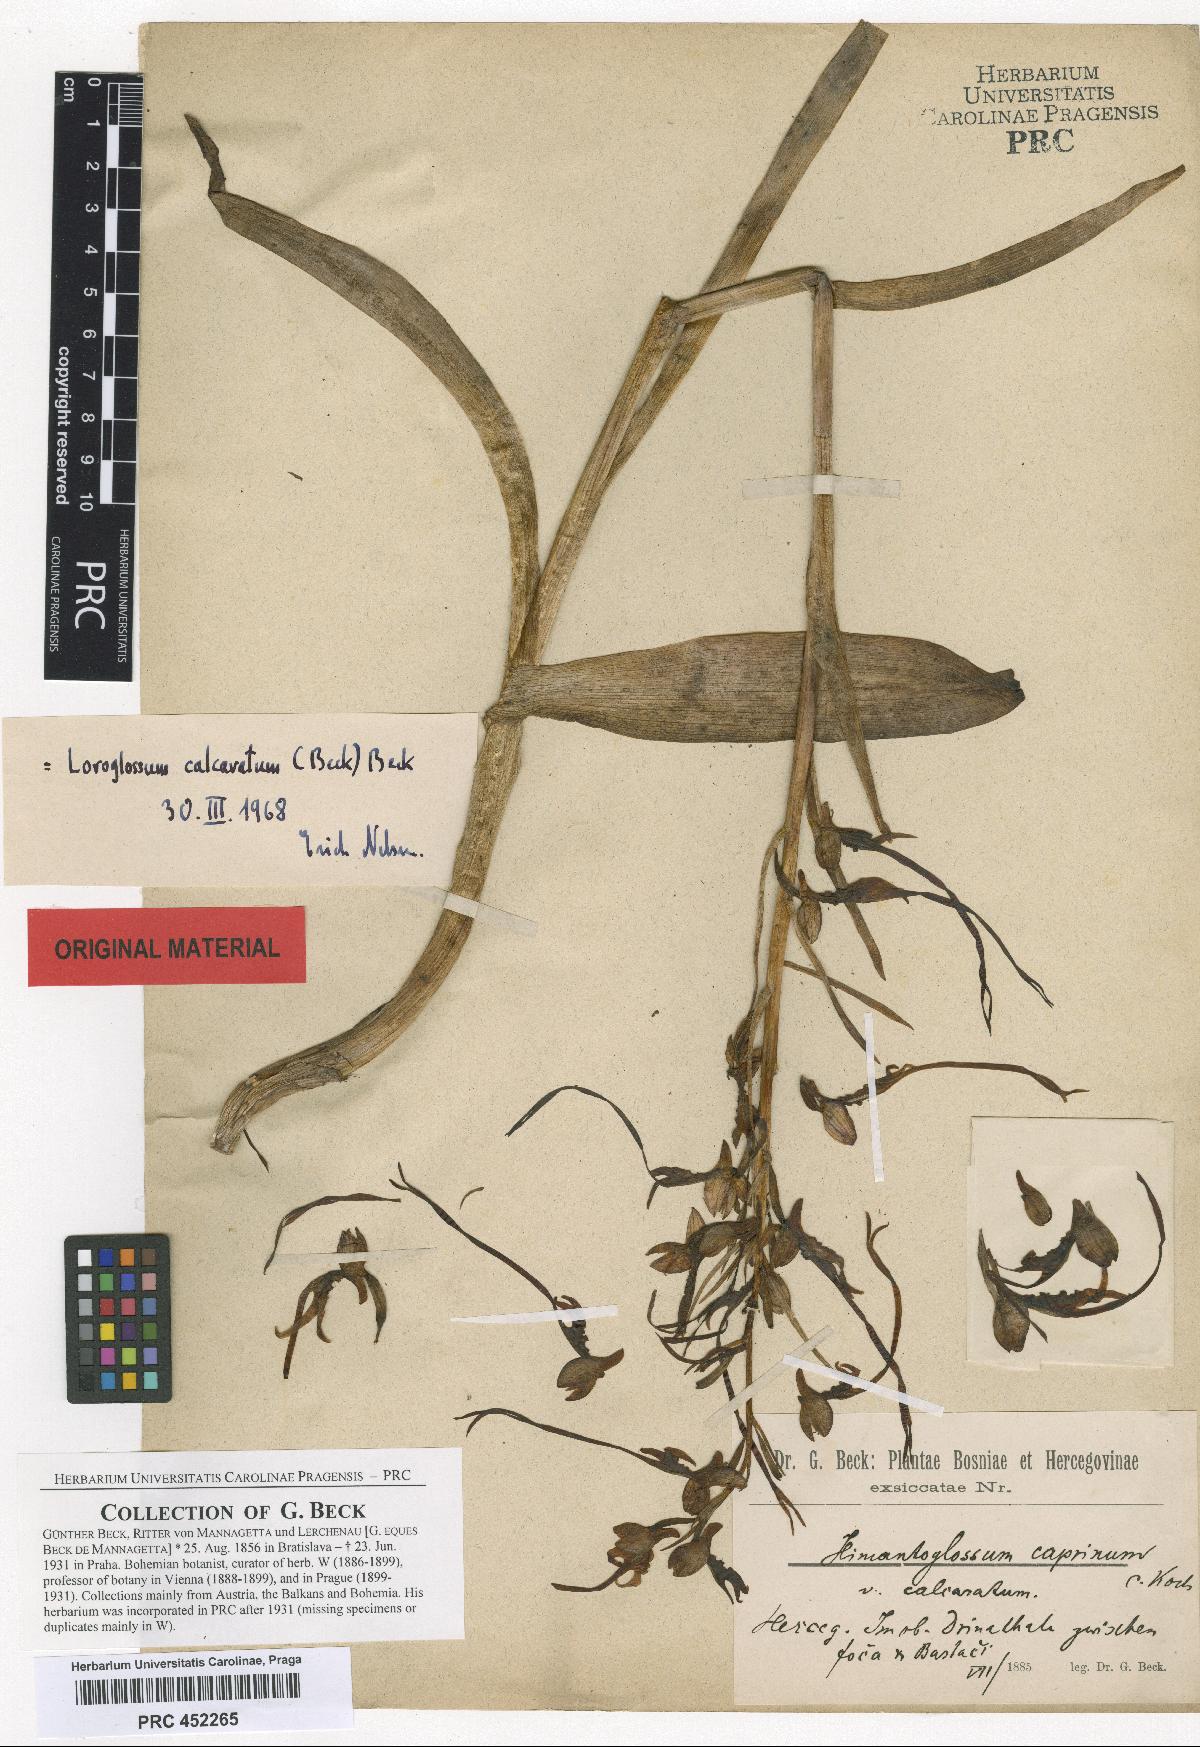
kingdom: Plantae
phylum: Tracheophyta
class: Liliopsida
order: Asparagales
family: Orchidaceae
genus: Himantoglossum
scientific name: Himantoglossum calcaratum
